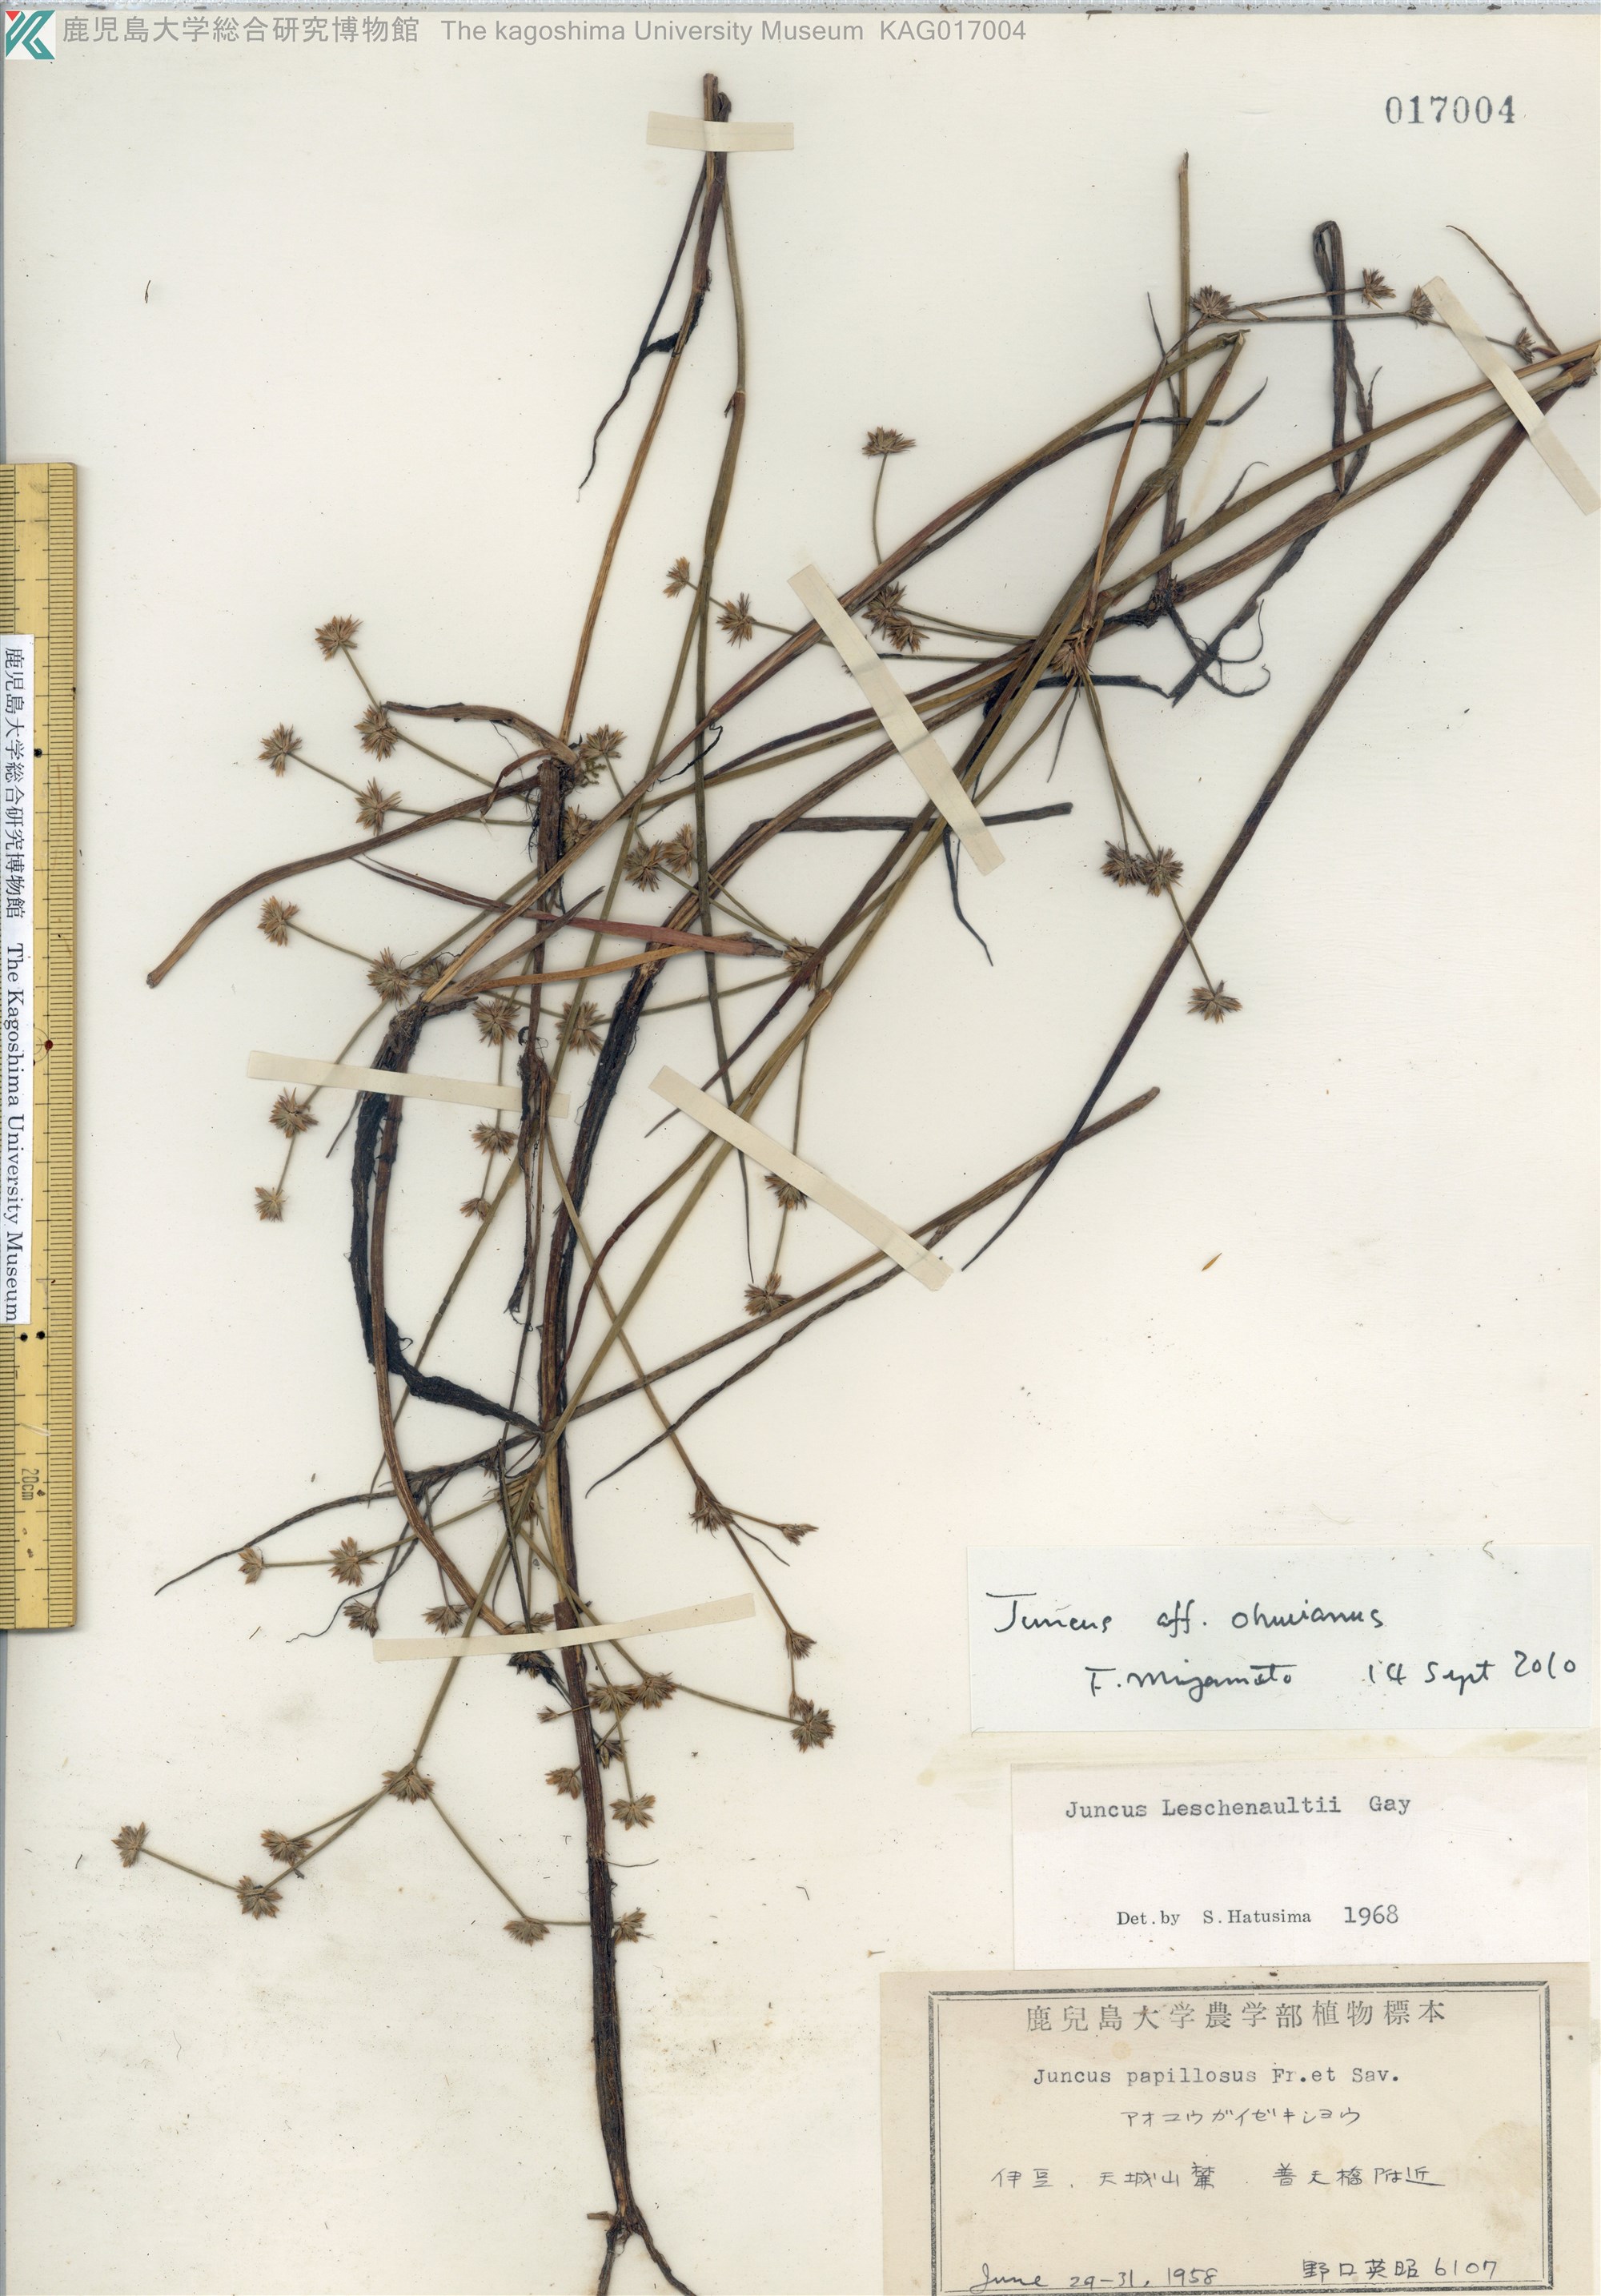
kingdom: Plantae
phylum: Tracheophyta
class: Liliopsida
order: Poales
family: Juncaceae
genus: Juncus
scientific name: Juncus wallichianus
